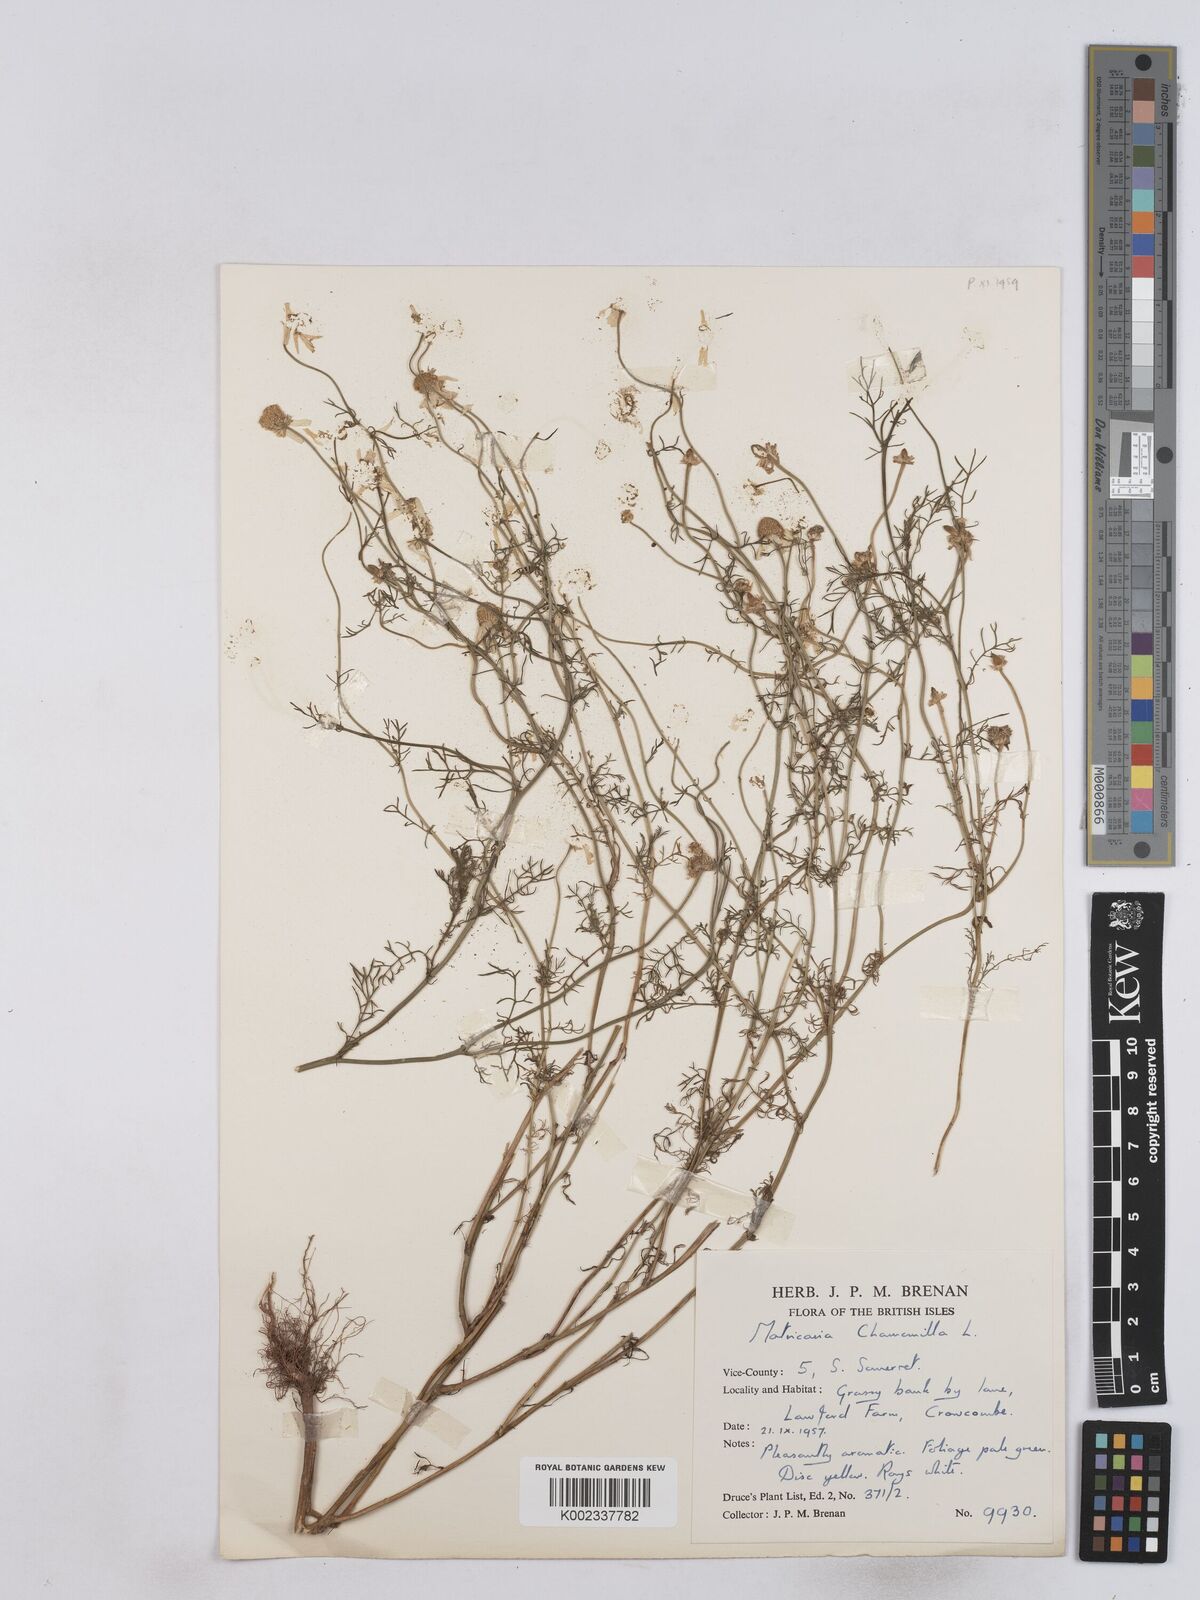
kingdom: Plantae
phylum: Tracheophyta
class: Magnoliopsida
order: Asterales
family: Asteraceae
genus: Matricaria
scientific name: Matricaria chamomilla
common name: Scented mayweed
